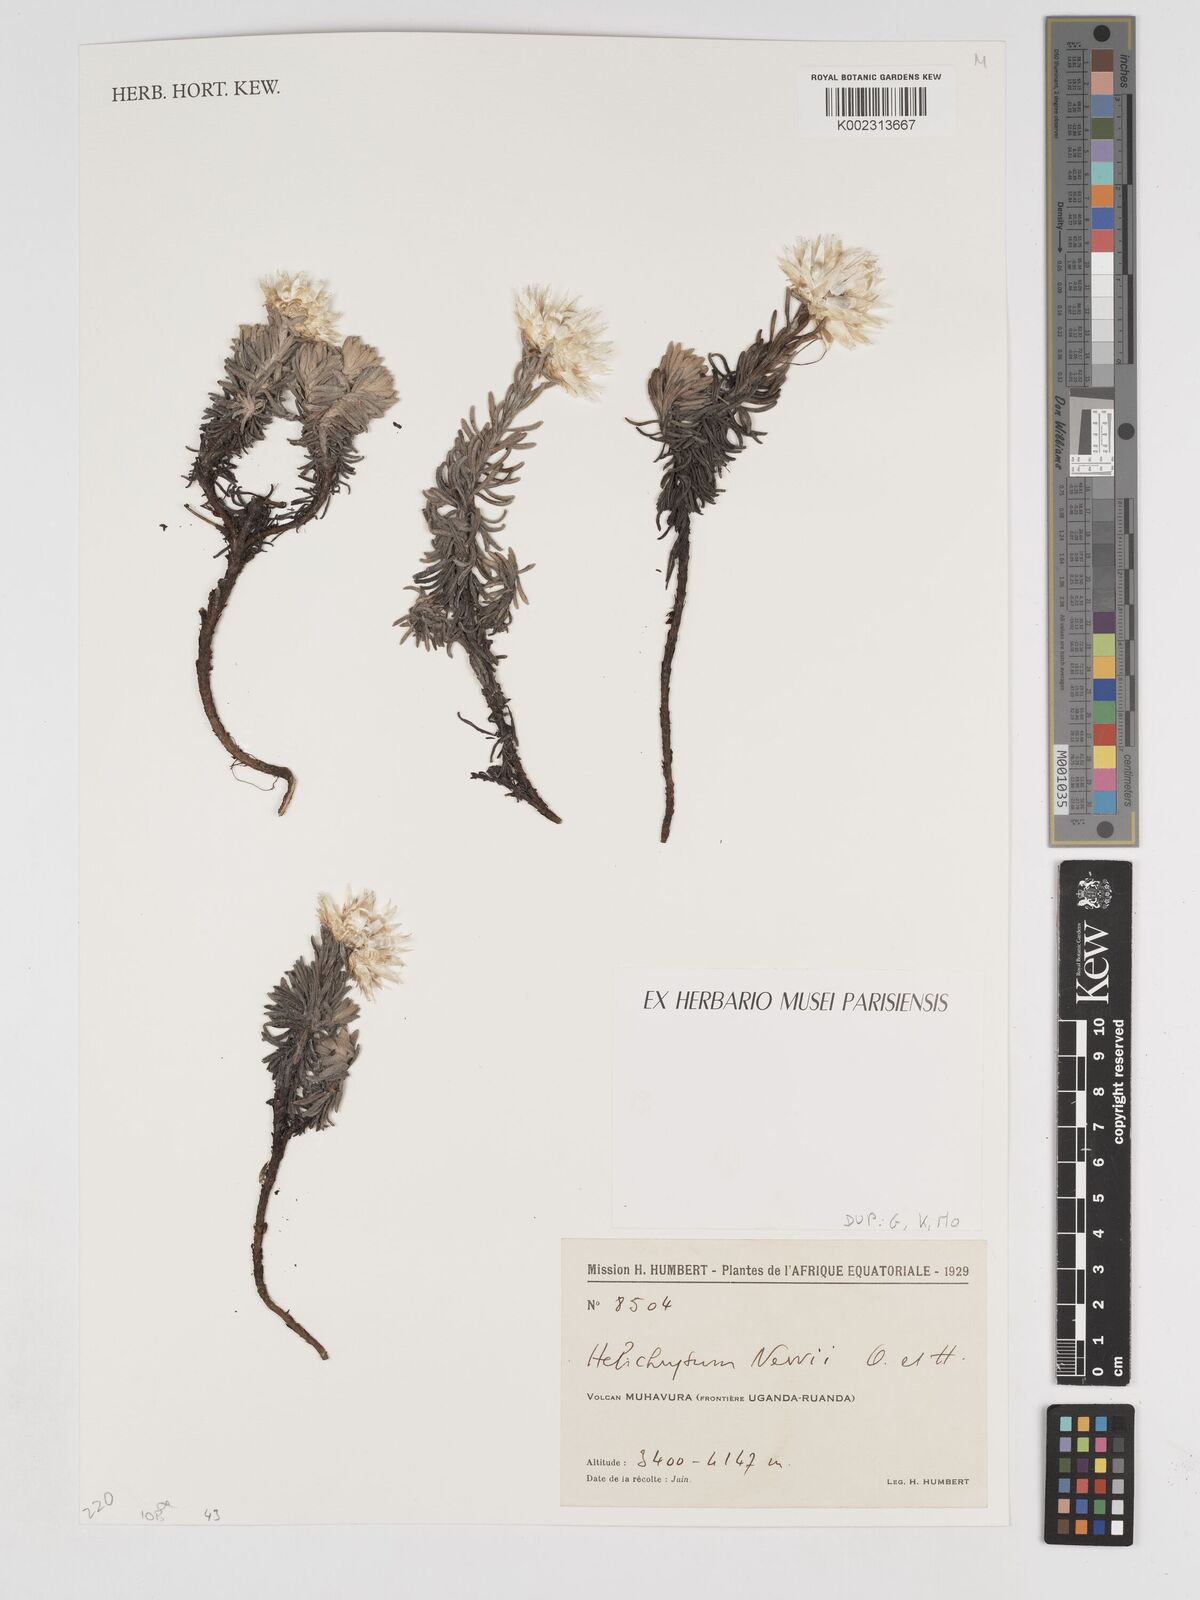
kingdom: Plantae
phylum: Tracheophyta
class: Magnoliopsida
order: Asterales
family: Asteraceae
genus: Helichrysum
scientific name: Helichrysum newii
